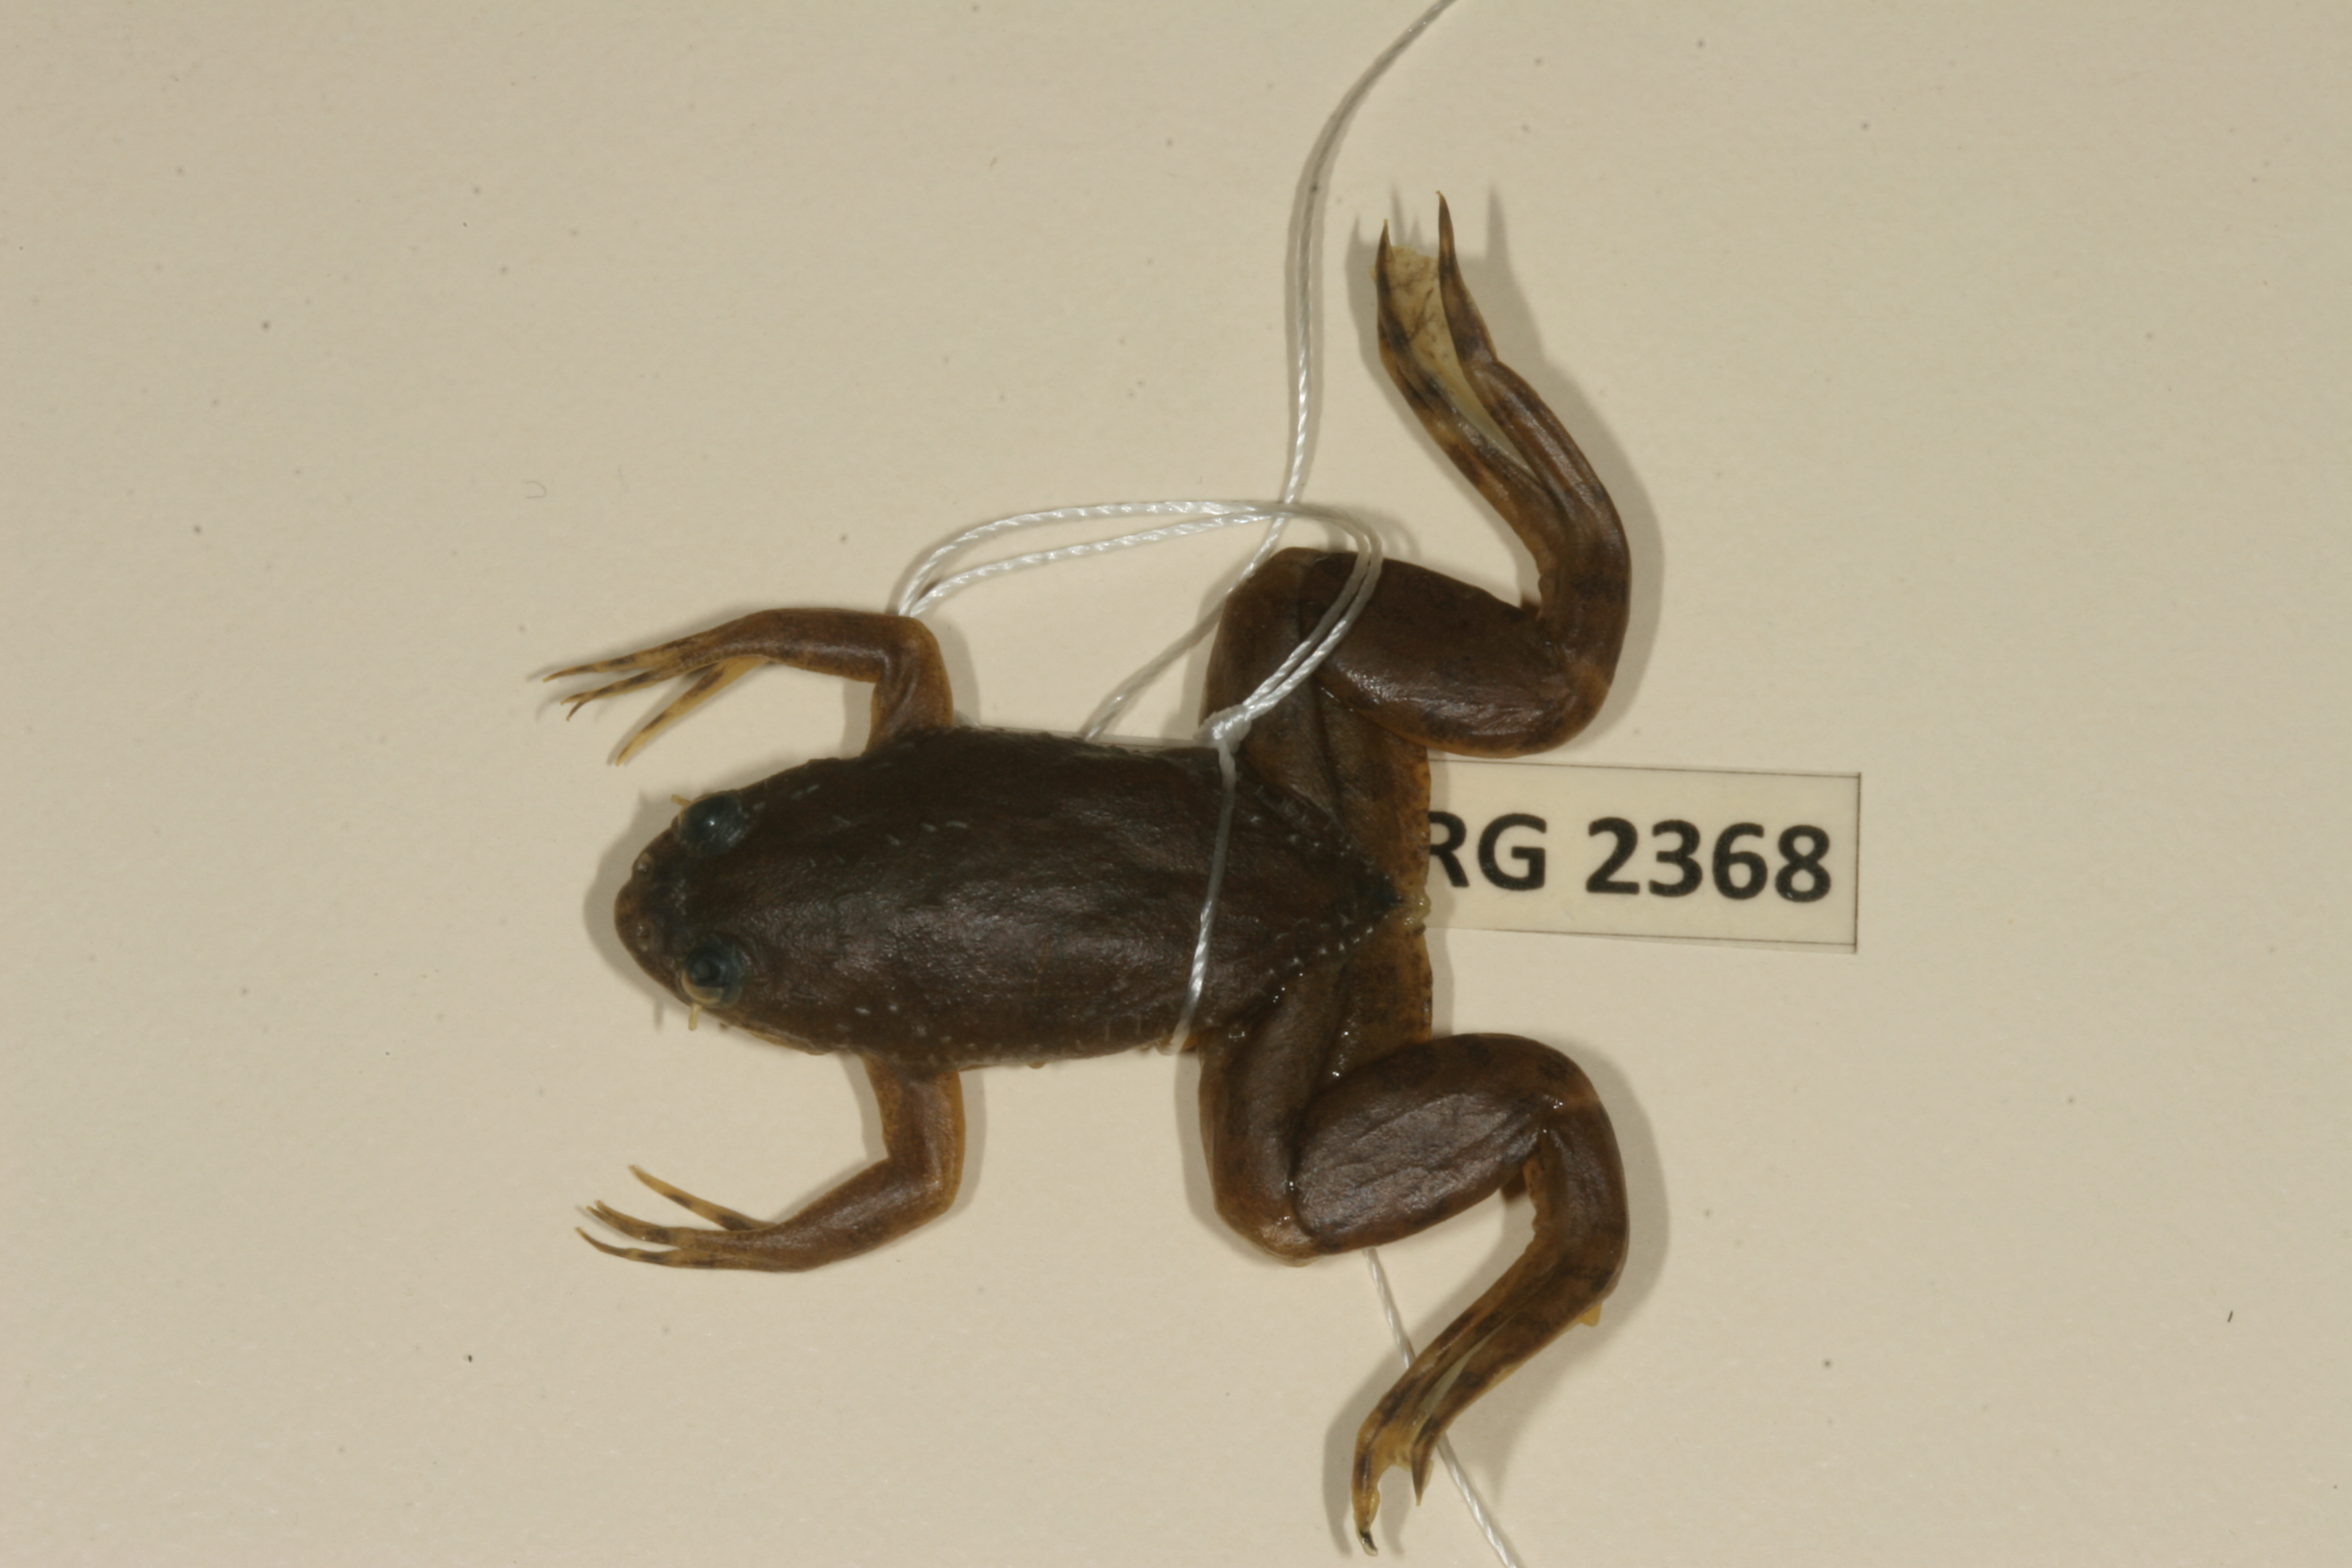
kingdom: Animalia
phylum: Chordata
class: Amphibia
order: Anura
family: Pipidae
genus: Xenopus
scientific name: Xenopus muelleri
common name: Muller's clawed frog
